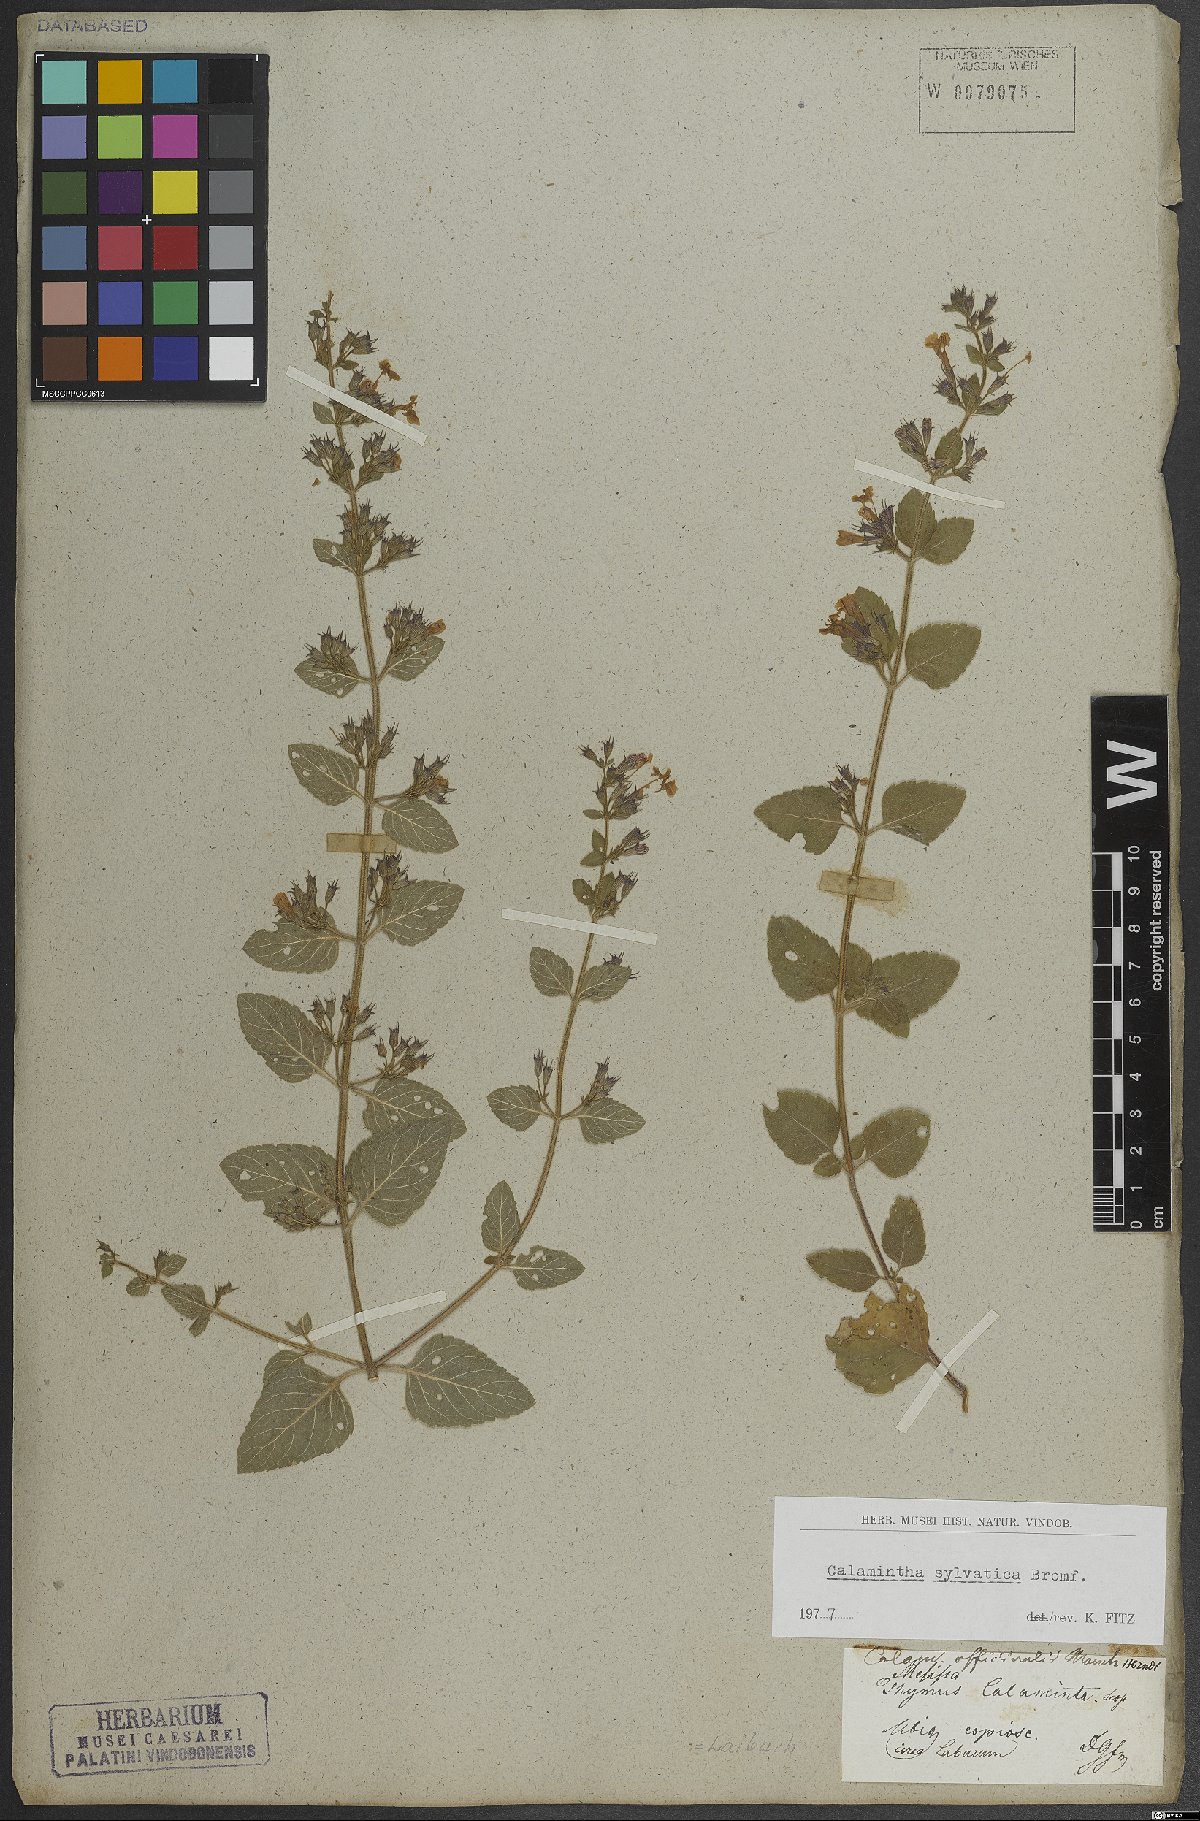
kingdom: Plantae
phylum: Tracheophyta
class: Magnoliopsida
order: Lamiales
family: Lamiaceae
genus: Clinopodium
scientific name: Clinopodium menthifolium
